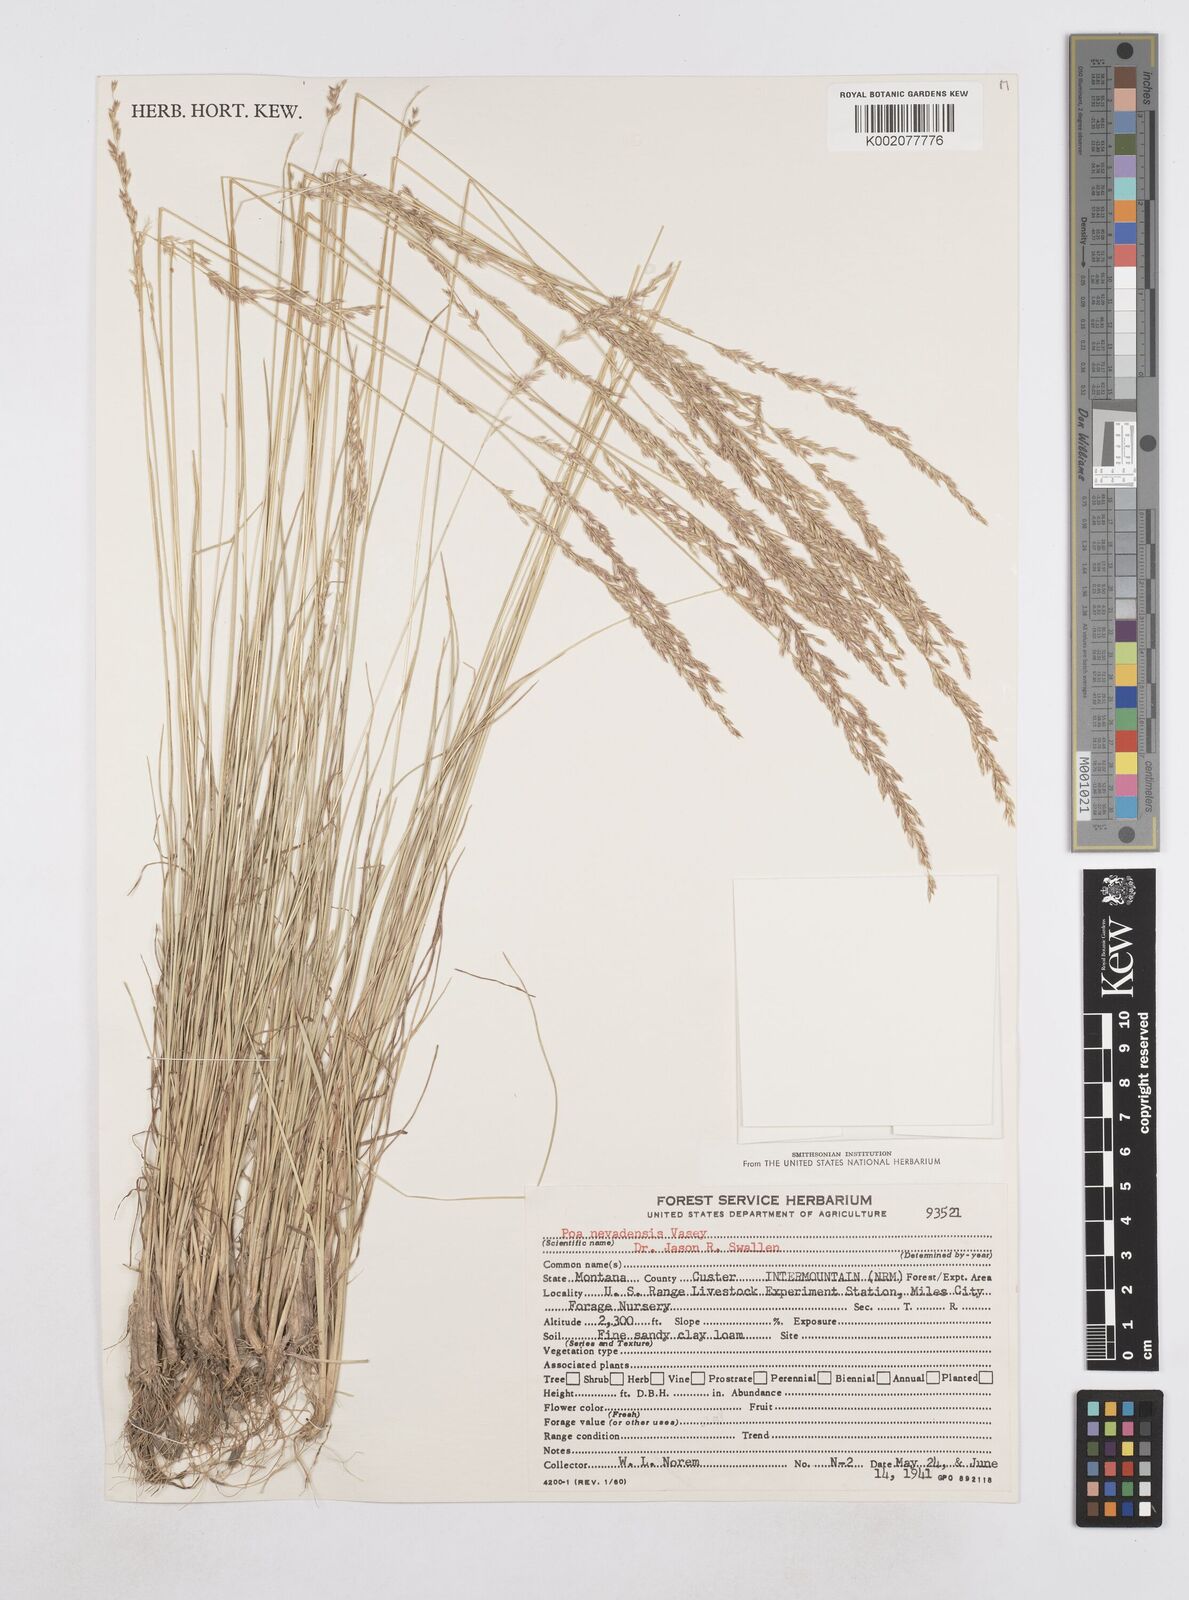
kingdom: Plantae
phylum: Tracheophyta
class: Liliopsida
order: Poales
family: Poaceae
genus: Poa
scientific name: Poa secunda
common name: Sandberg bluegrass
